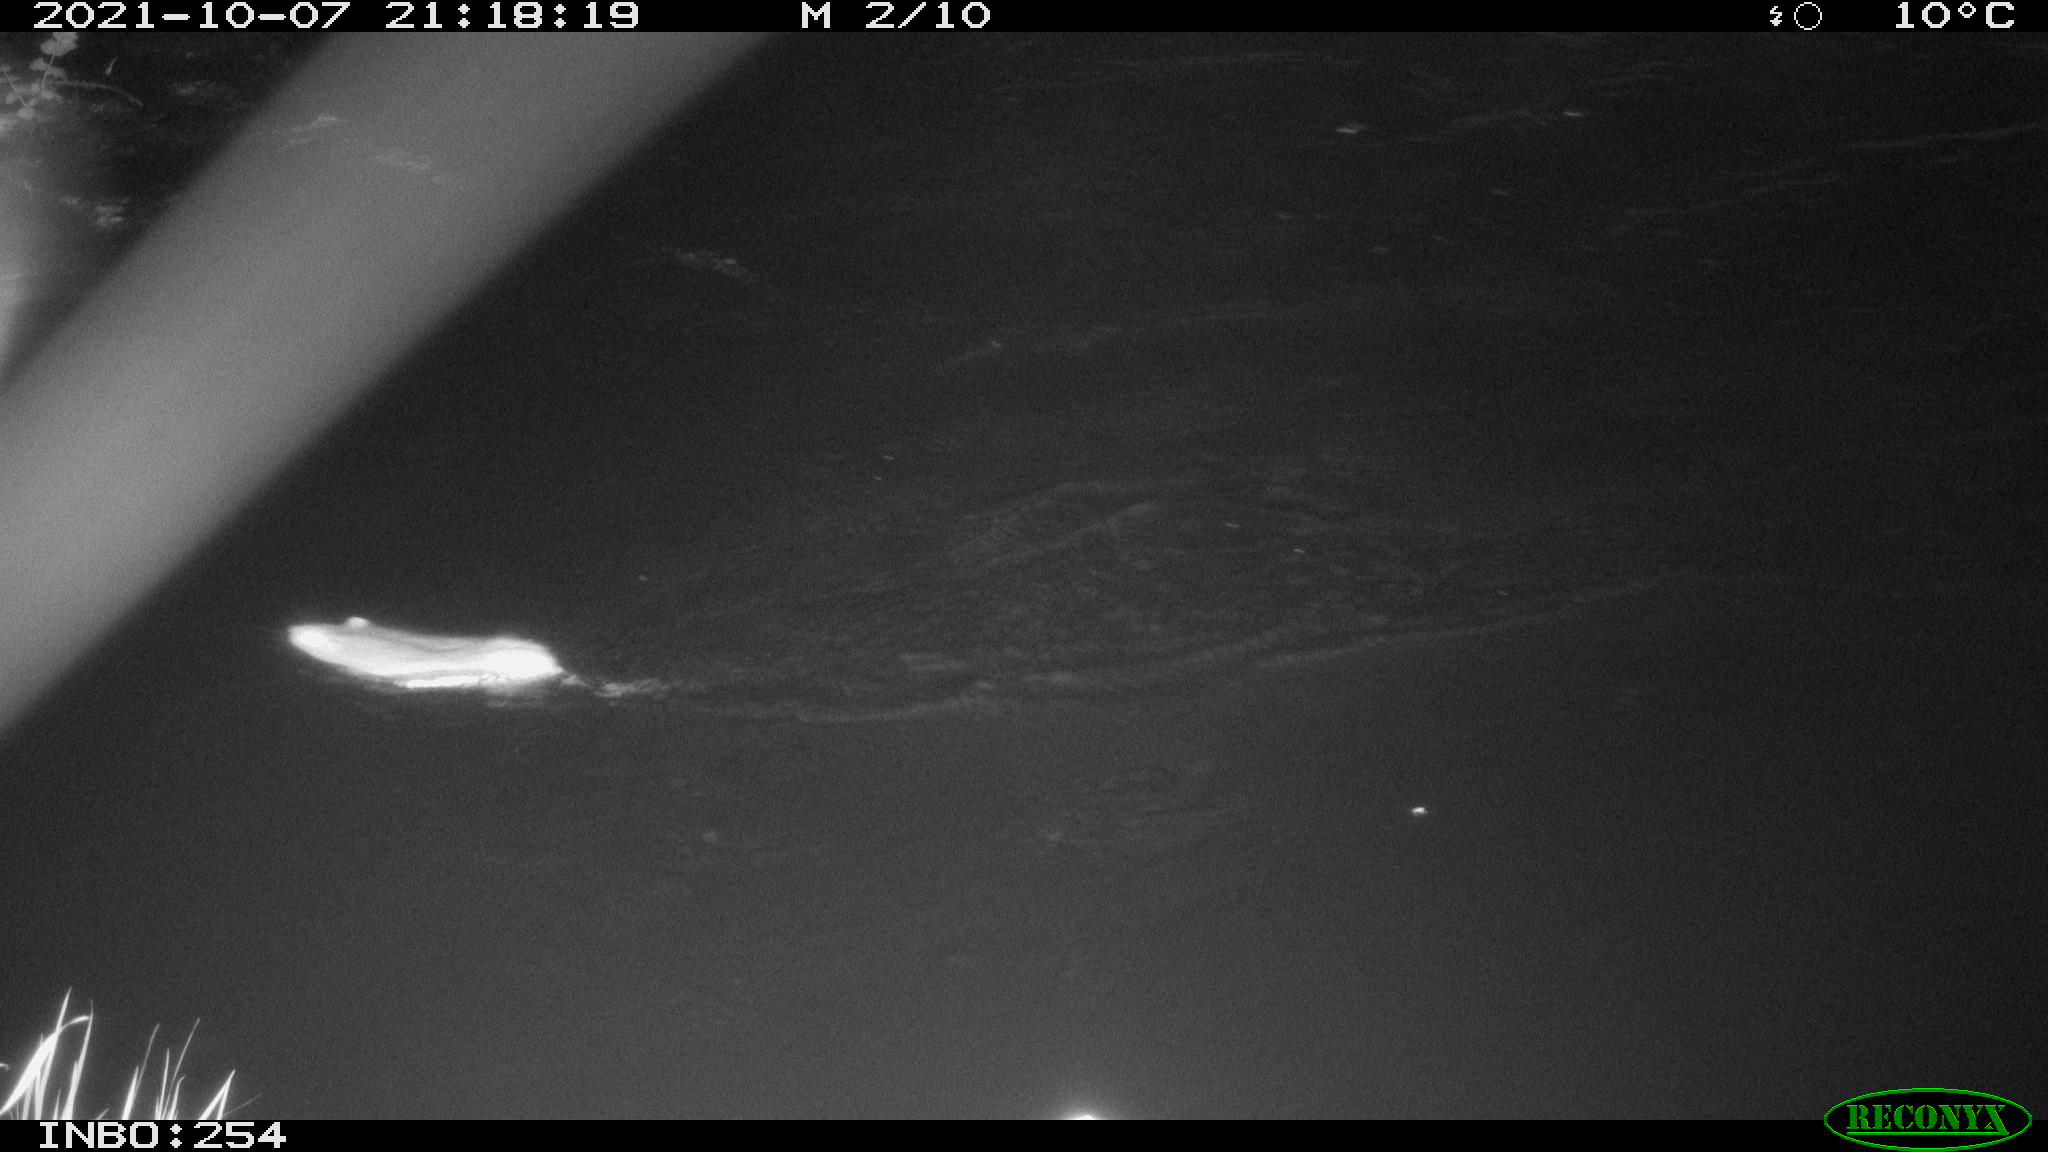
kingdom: Animalia
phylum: Chordata
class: Mammalia
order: Rodentia
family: Muridae
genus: Rattus
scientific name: Rattus norvegicus
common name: Brown rat
